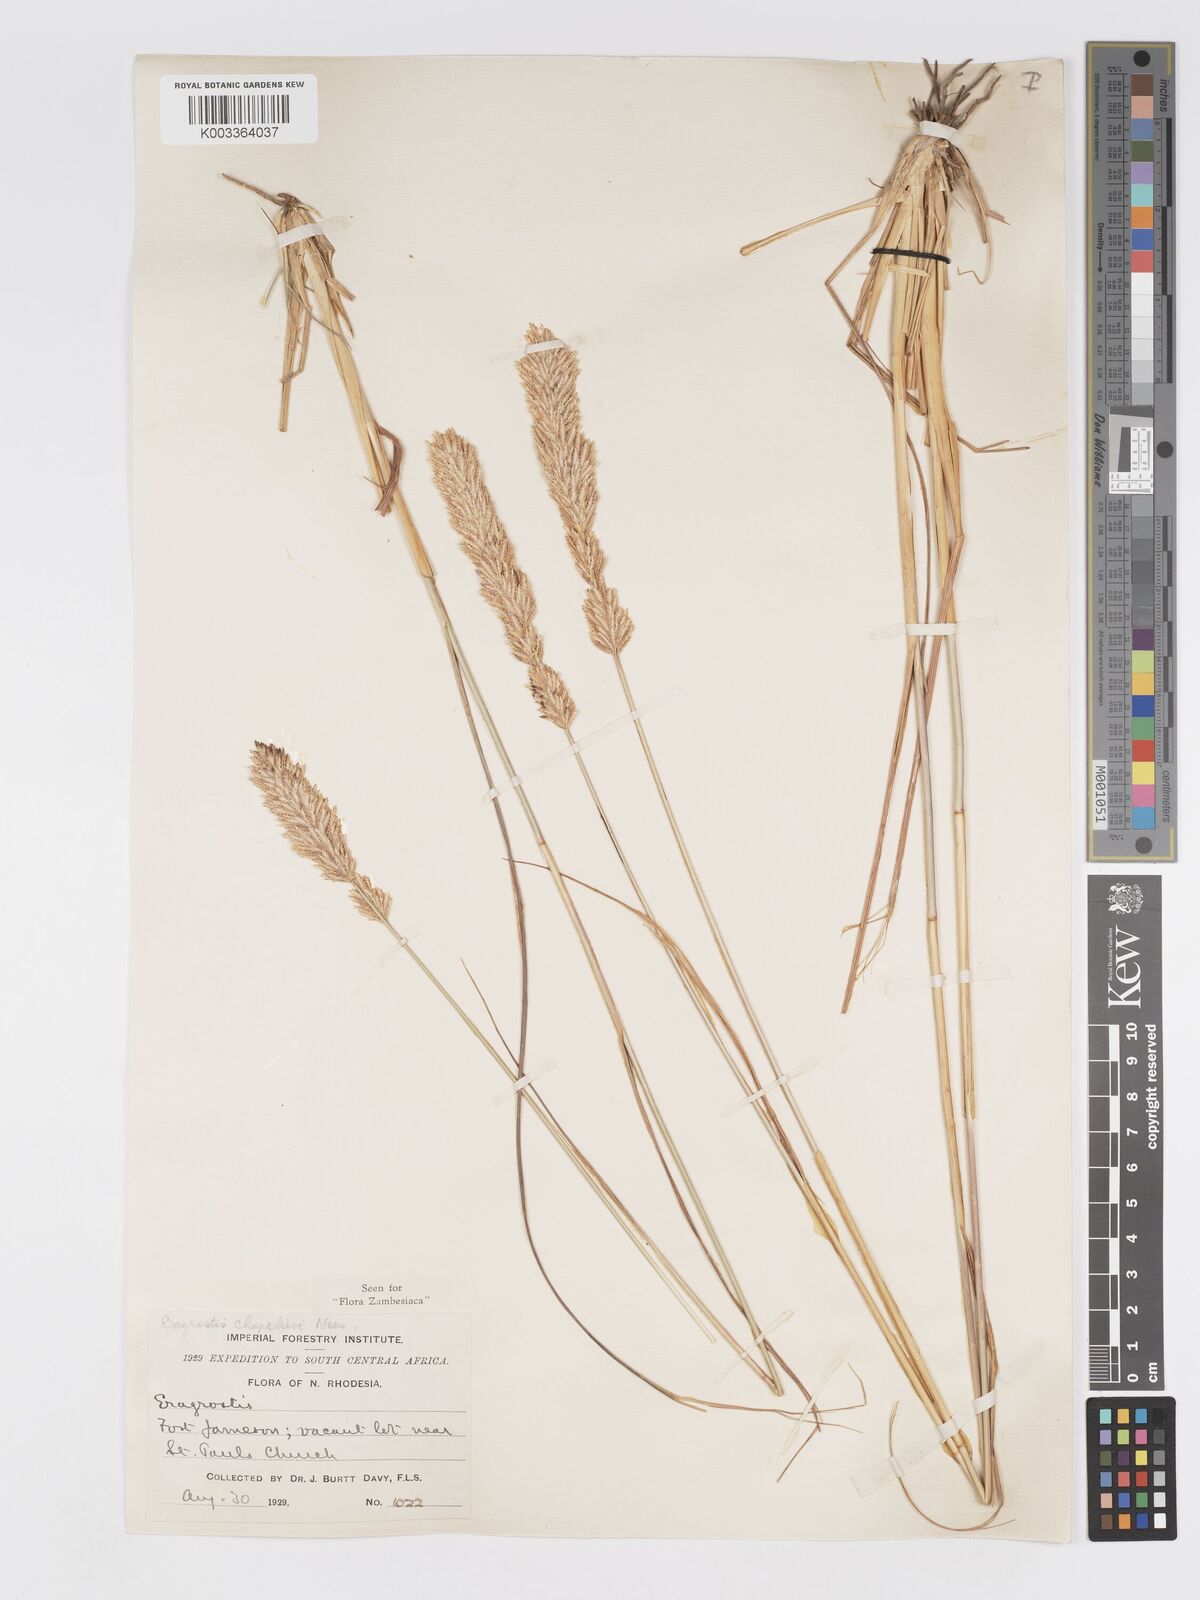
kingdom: Plantae
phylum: Tracheophyta
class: Liliopsida
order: Poales
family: Poaceae
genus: Eragrostis
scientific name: Eragrostis chapelieri
